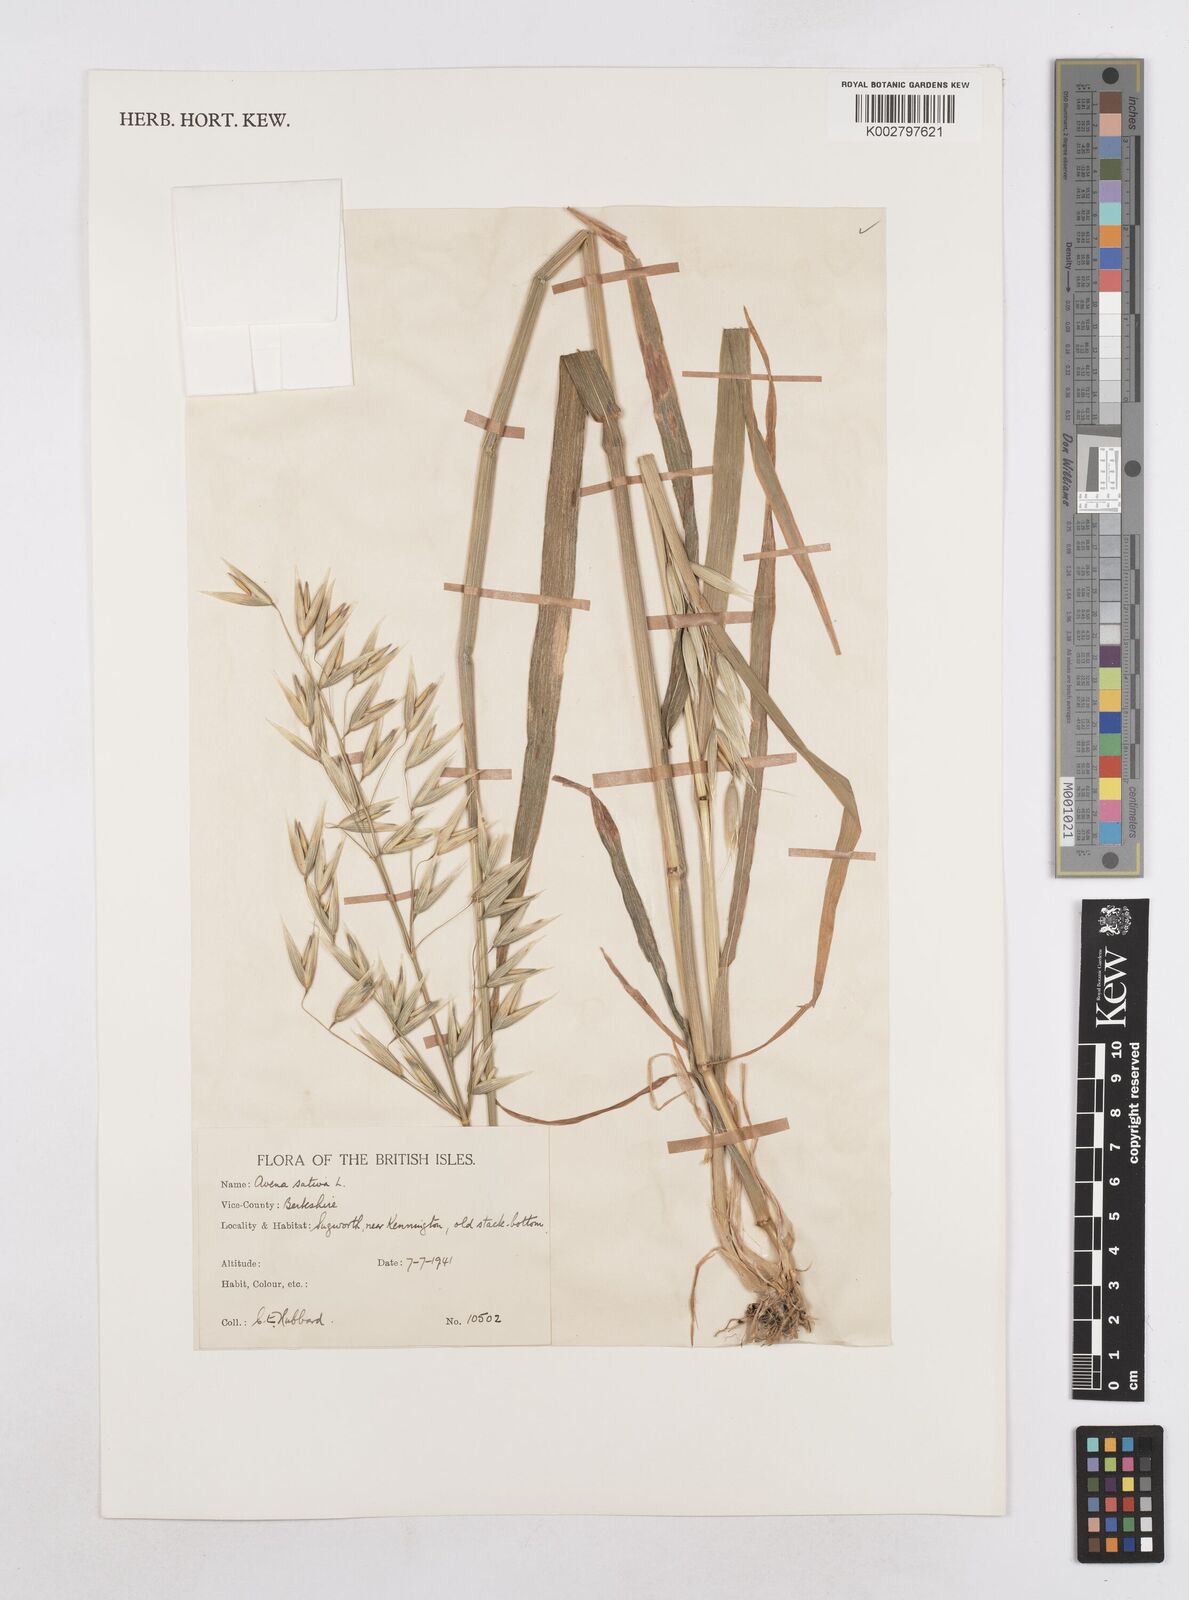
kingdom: Plantae
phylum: Tracheophyta
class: Liliopsida
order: Poales
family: Poaceae
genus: Avena
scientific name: Avena sativa
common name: Oat
